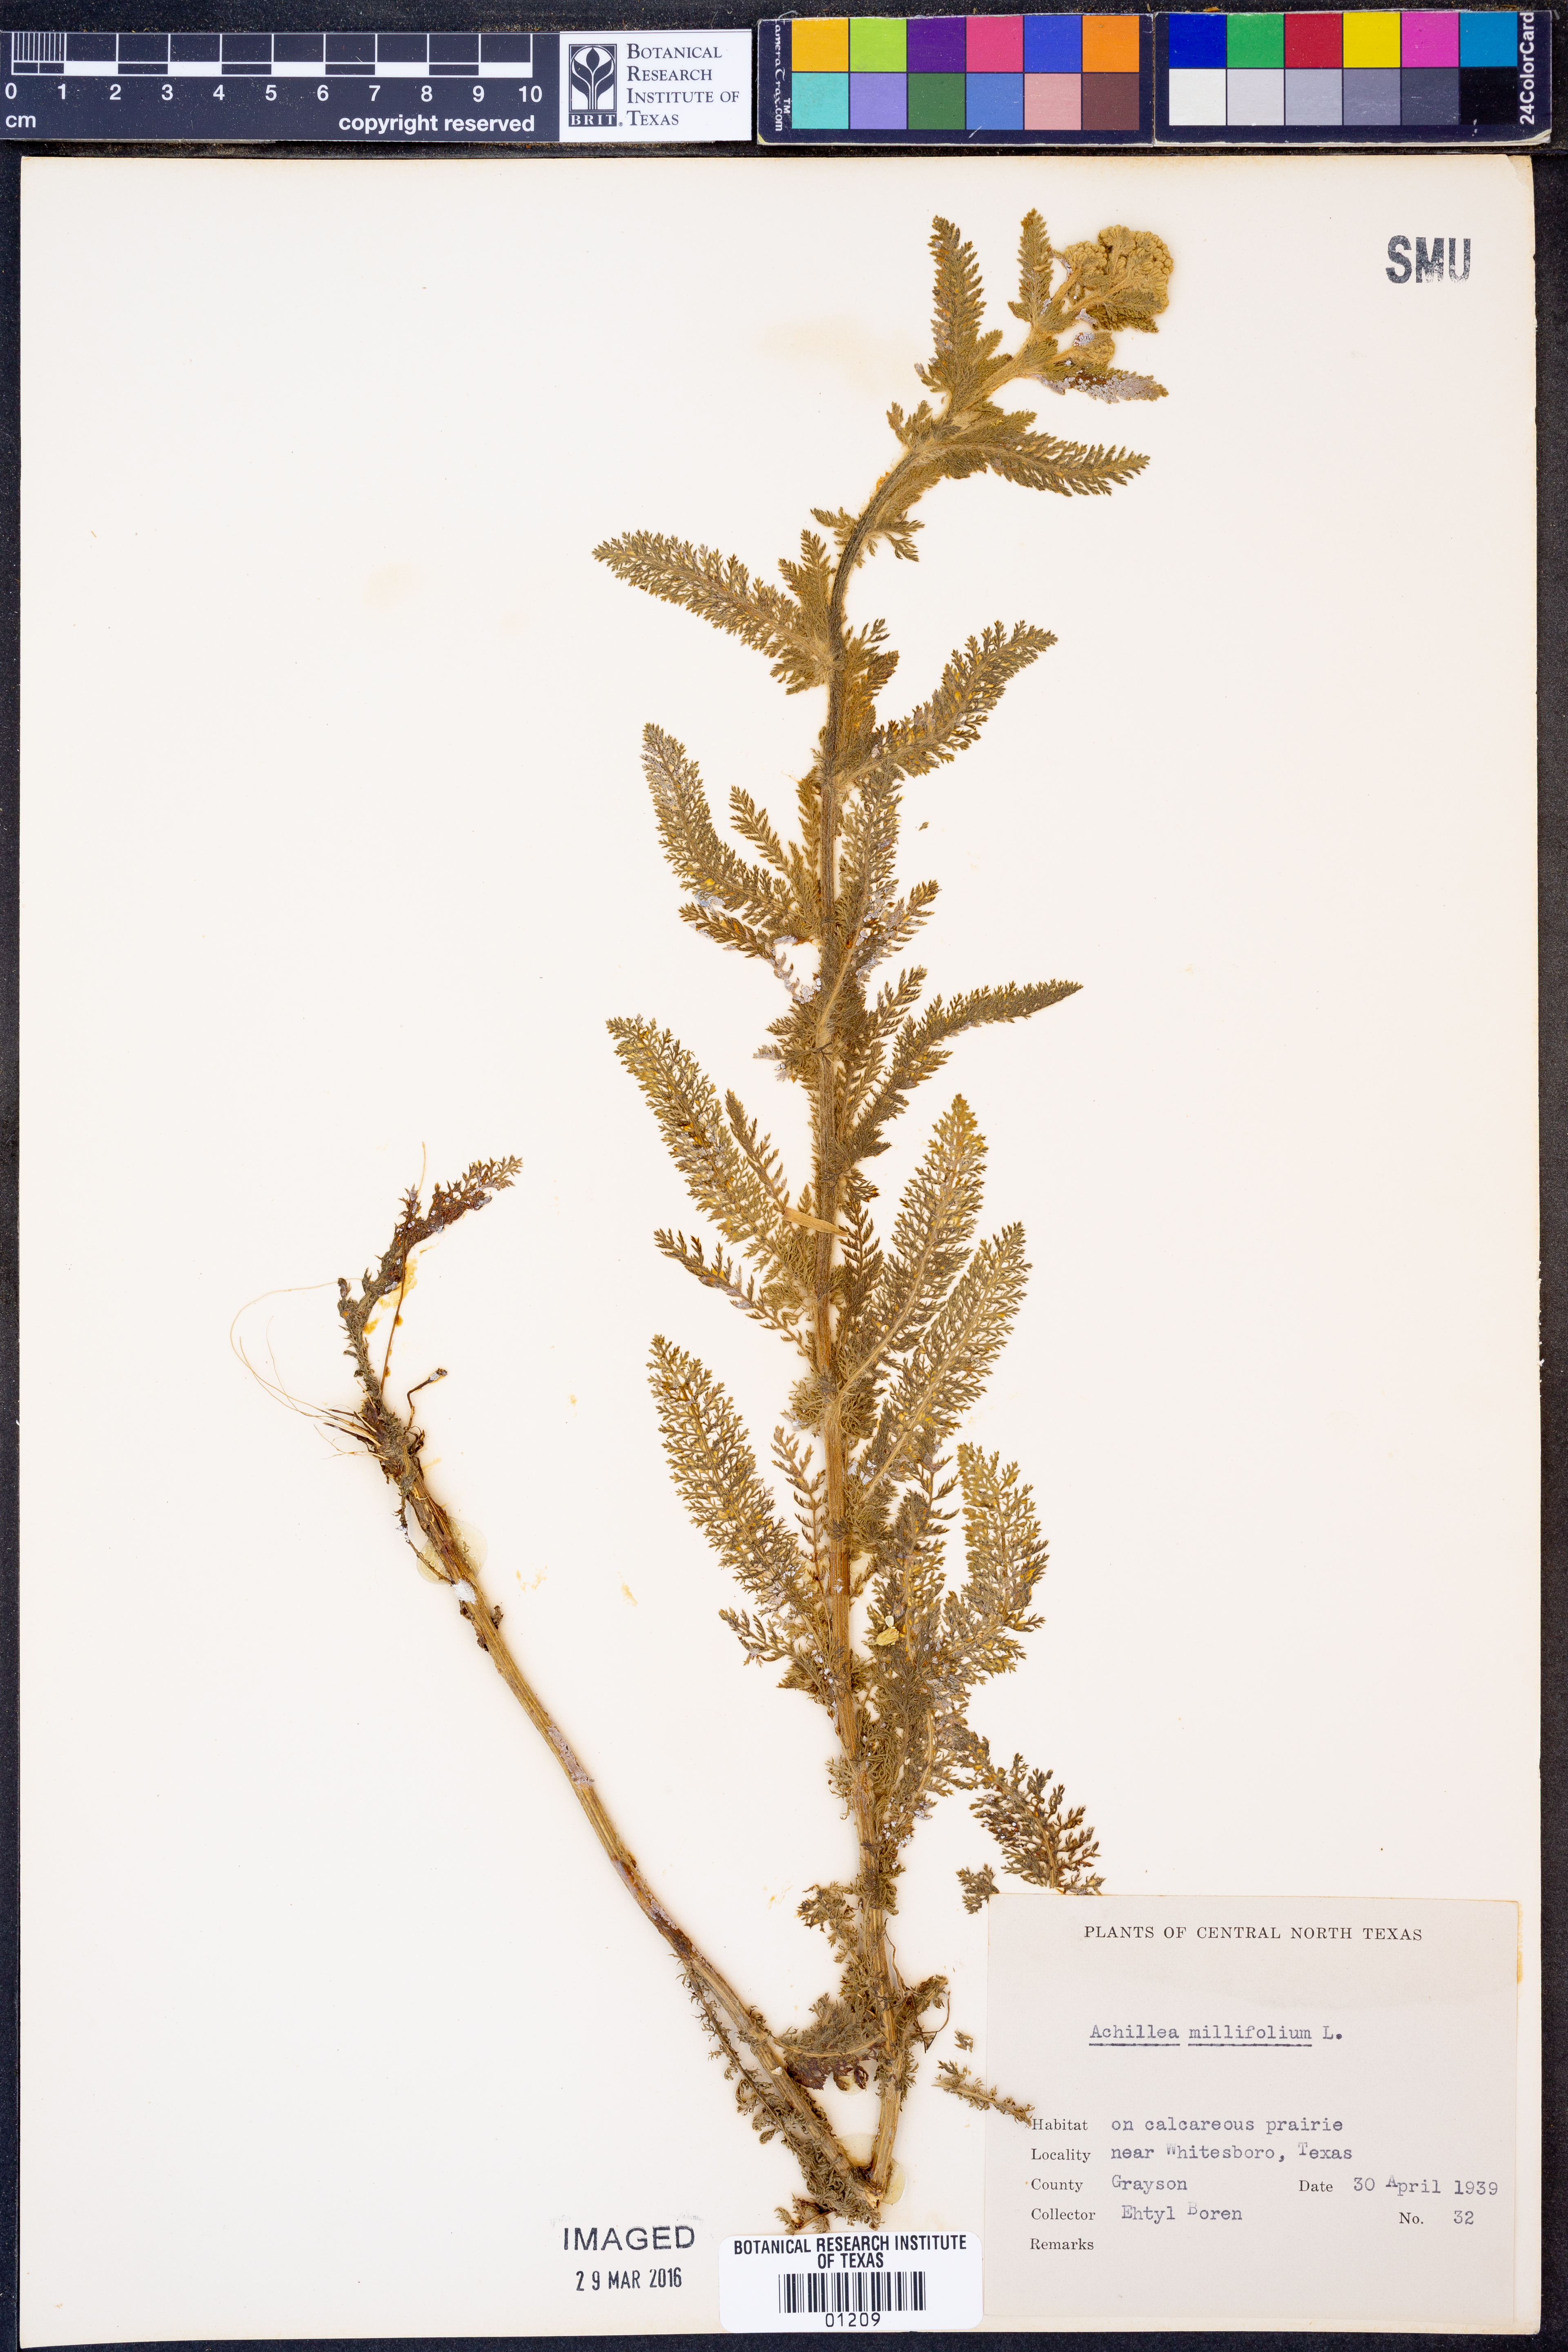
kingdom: Plantae
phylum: Tracheophyta
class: Magnoliopsida
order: Asterales
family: Asteraceae
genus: Achillea
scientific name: Achillea millefolium
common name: Yarrow
